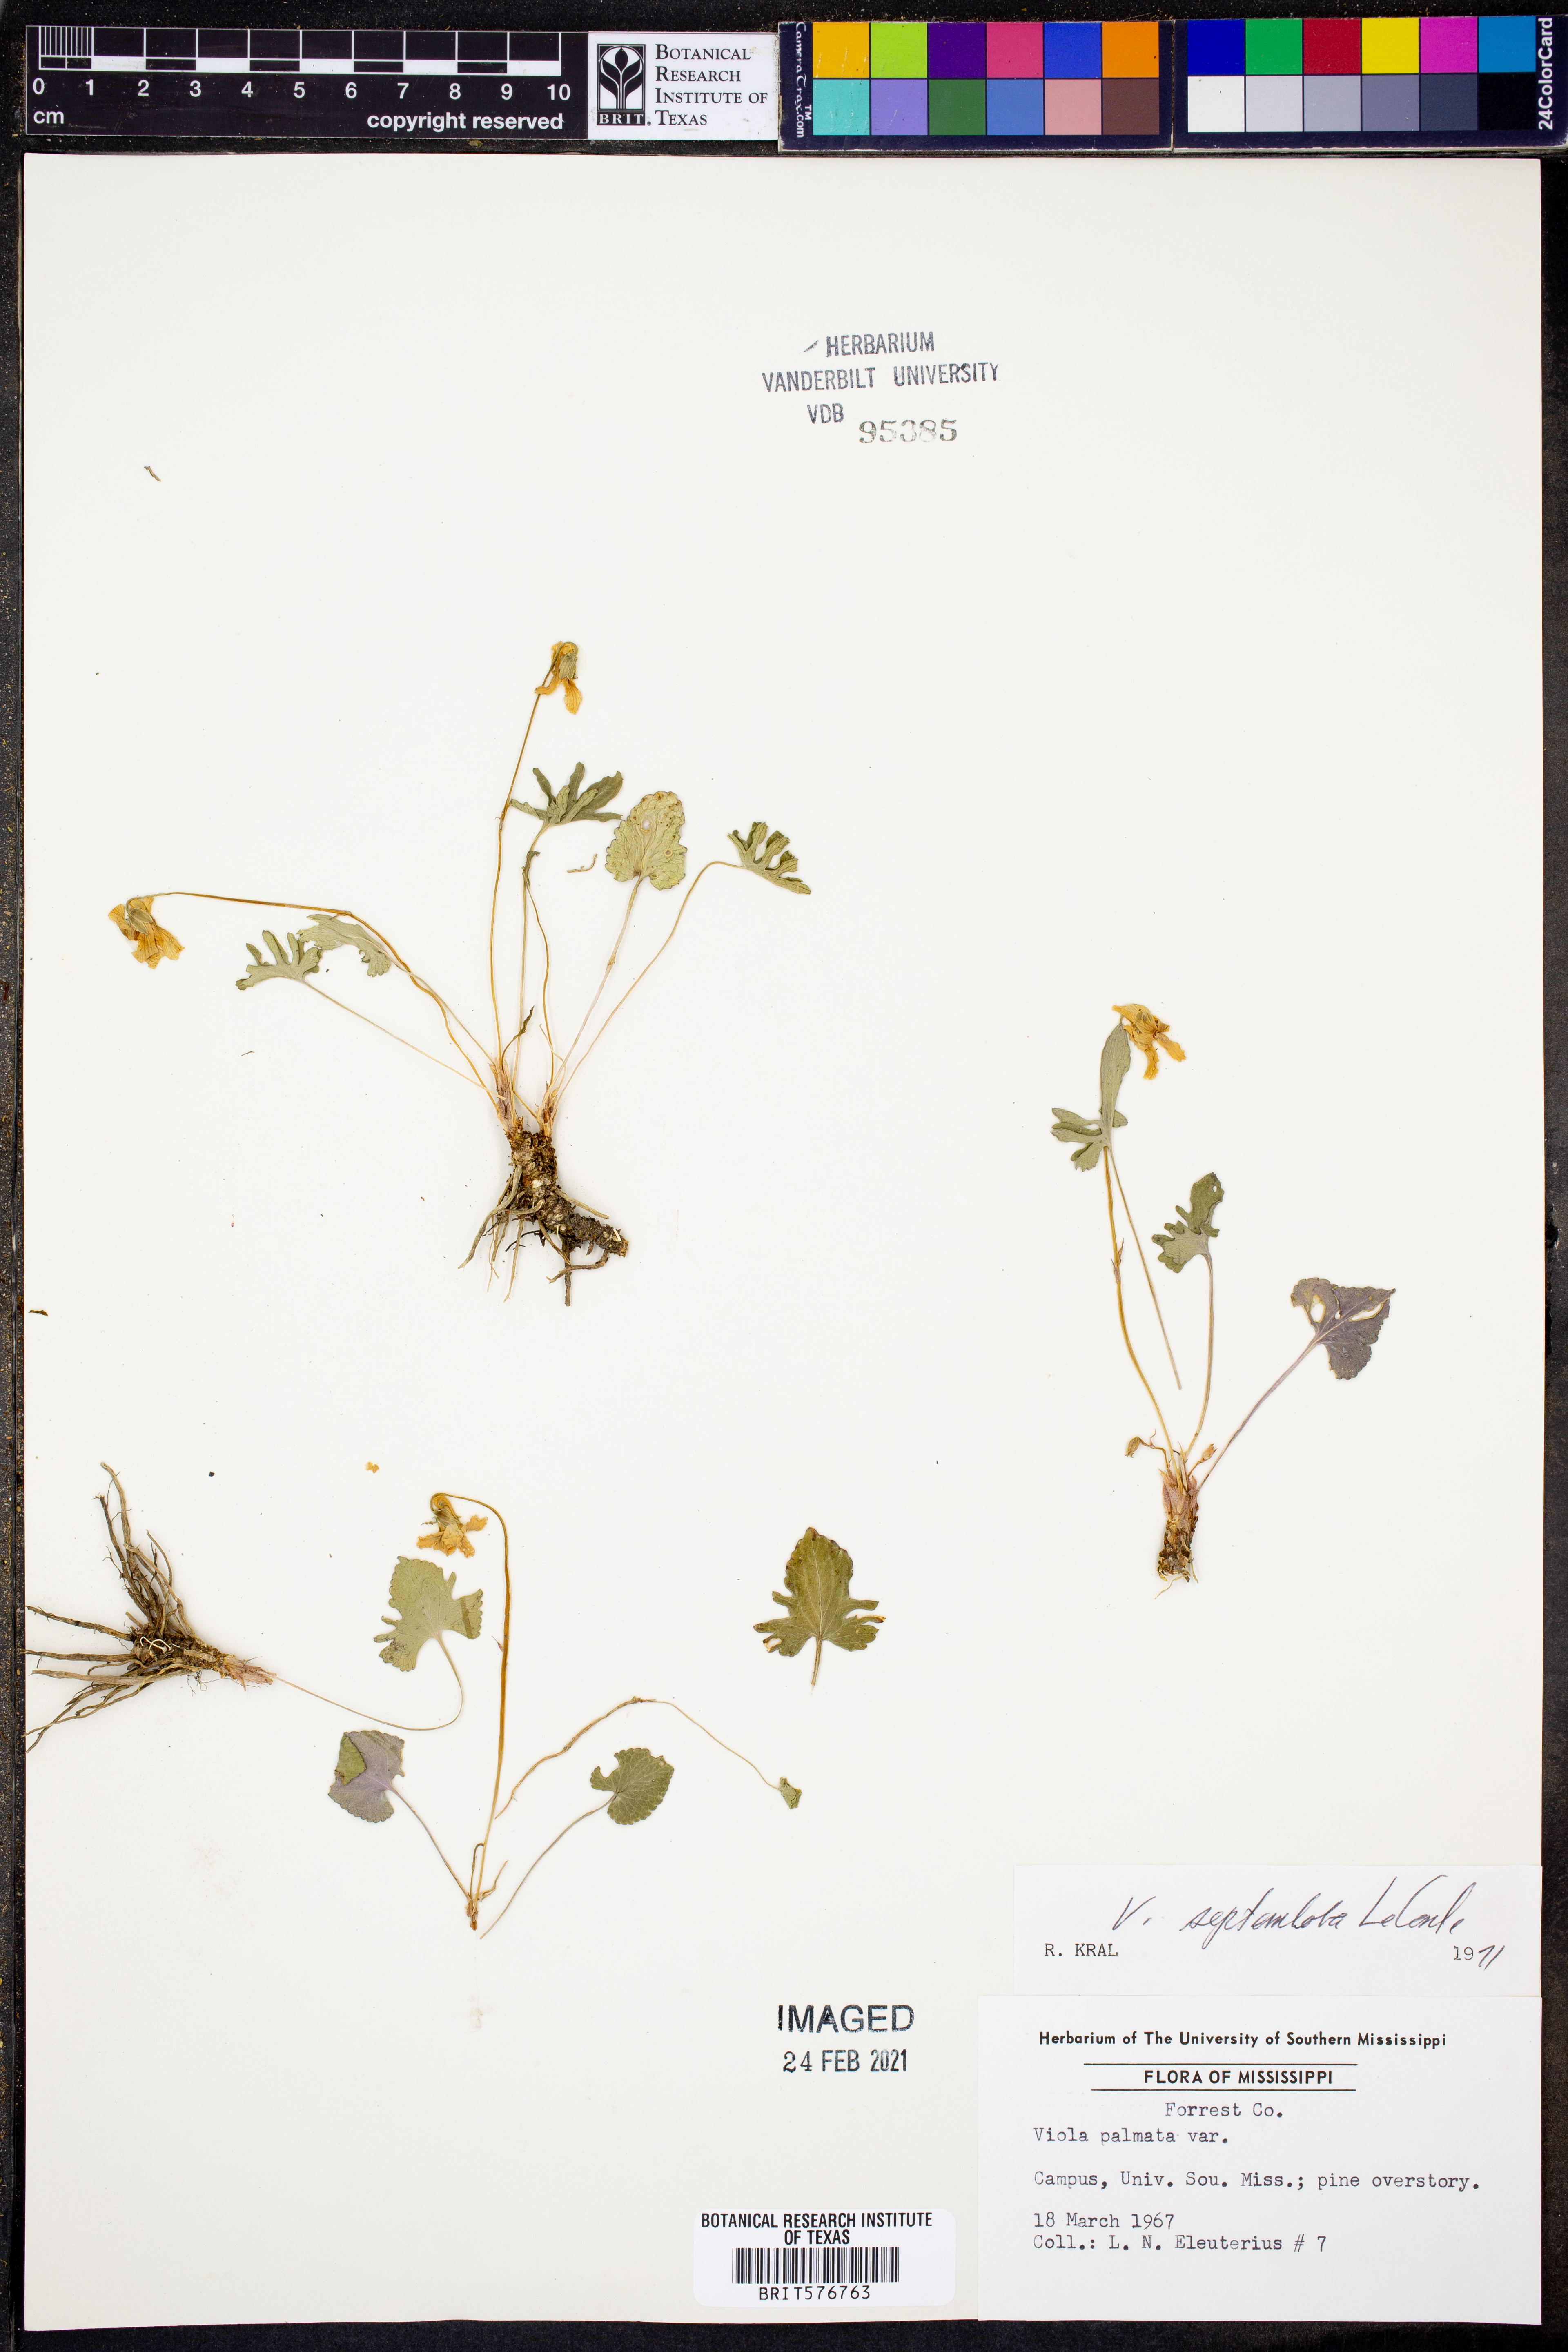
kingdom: Plantae
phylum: Tracheophyta
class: Magnoliopsida
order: Malpighiales
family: Violaceae
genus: Viola
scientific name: Viola septemloba
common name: Southern coast violet
